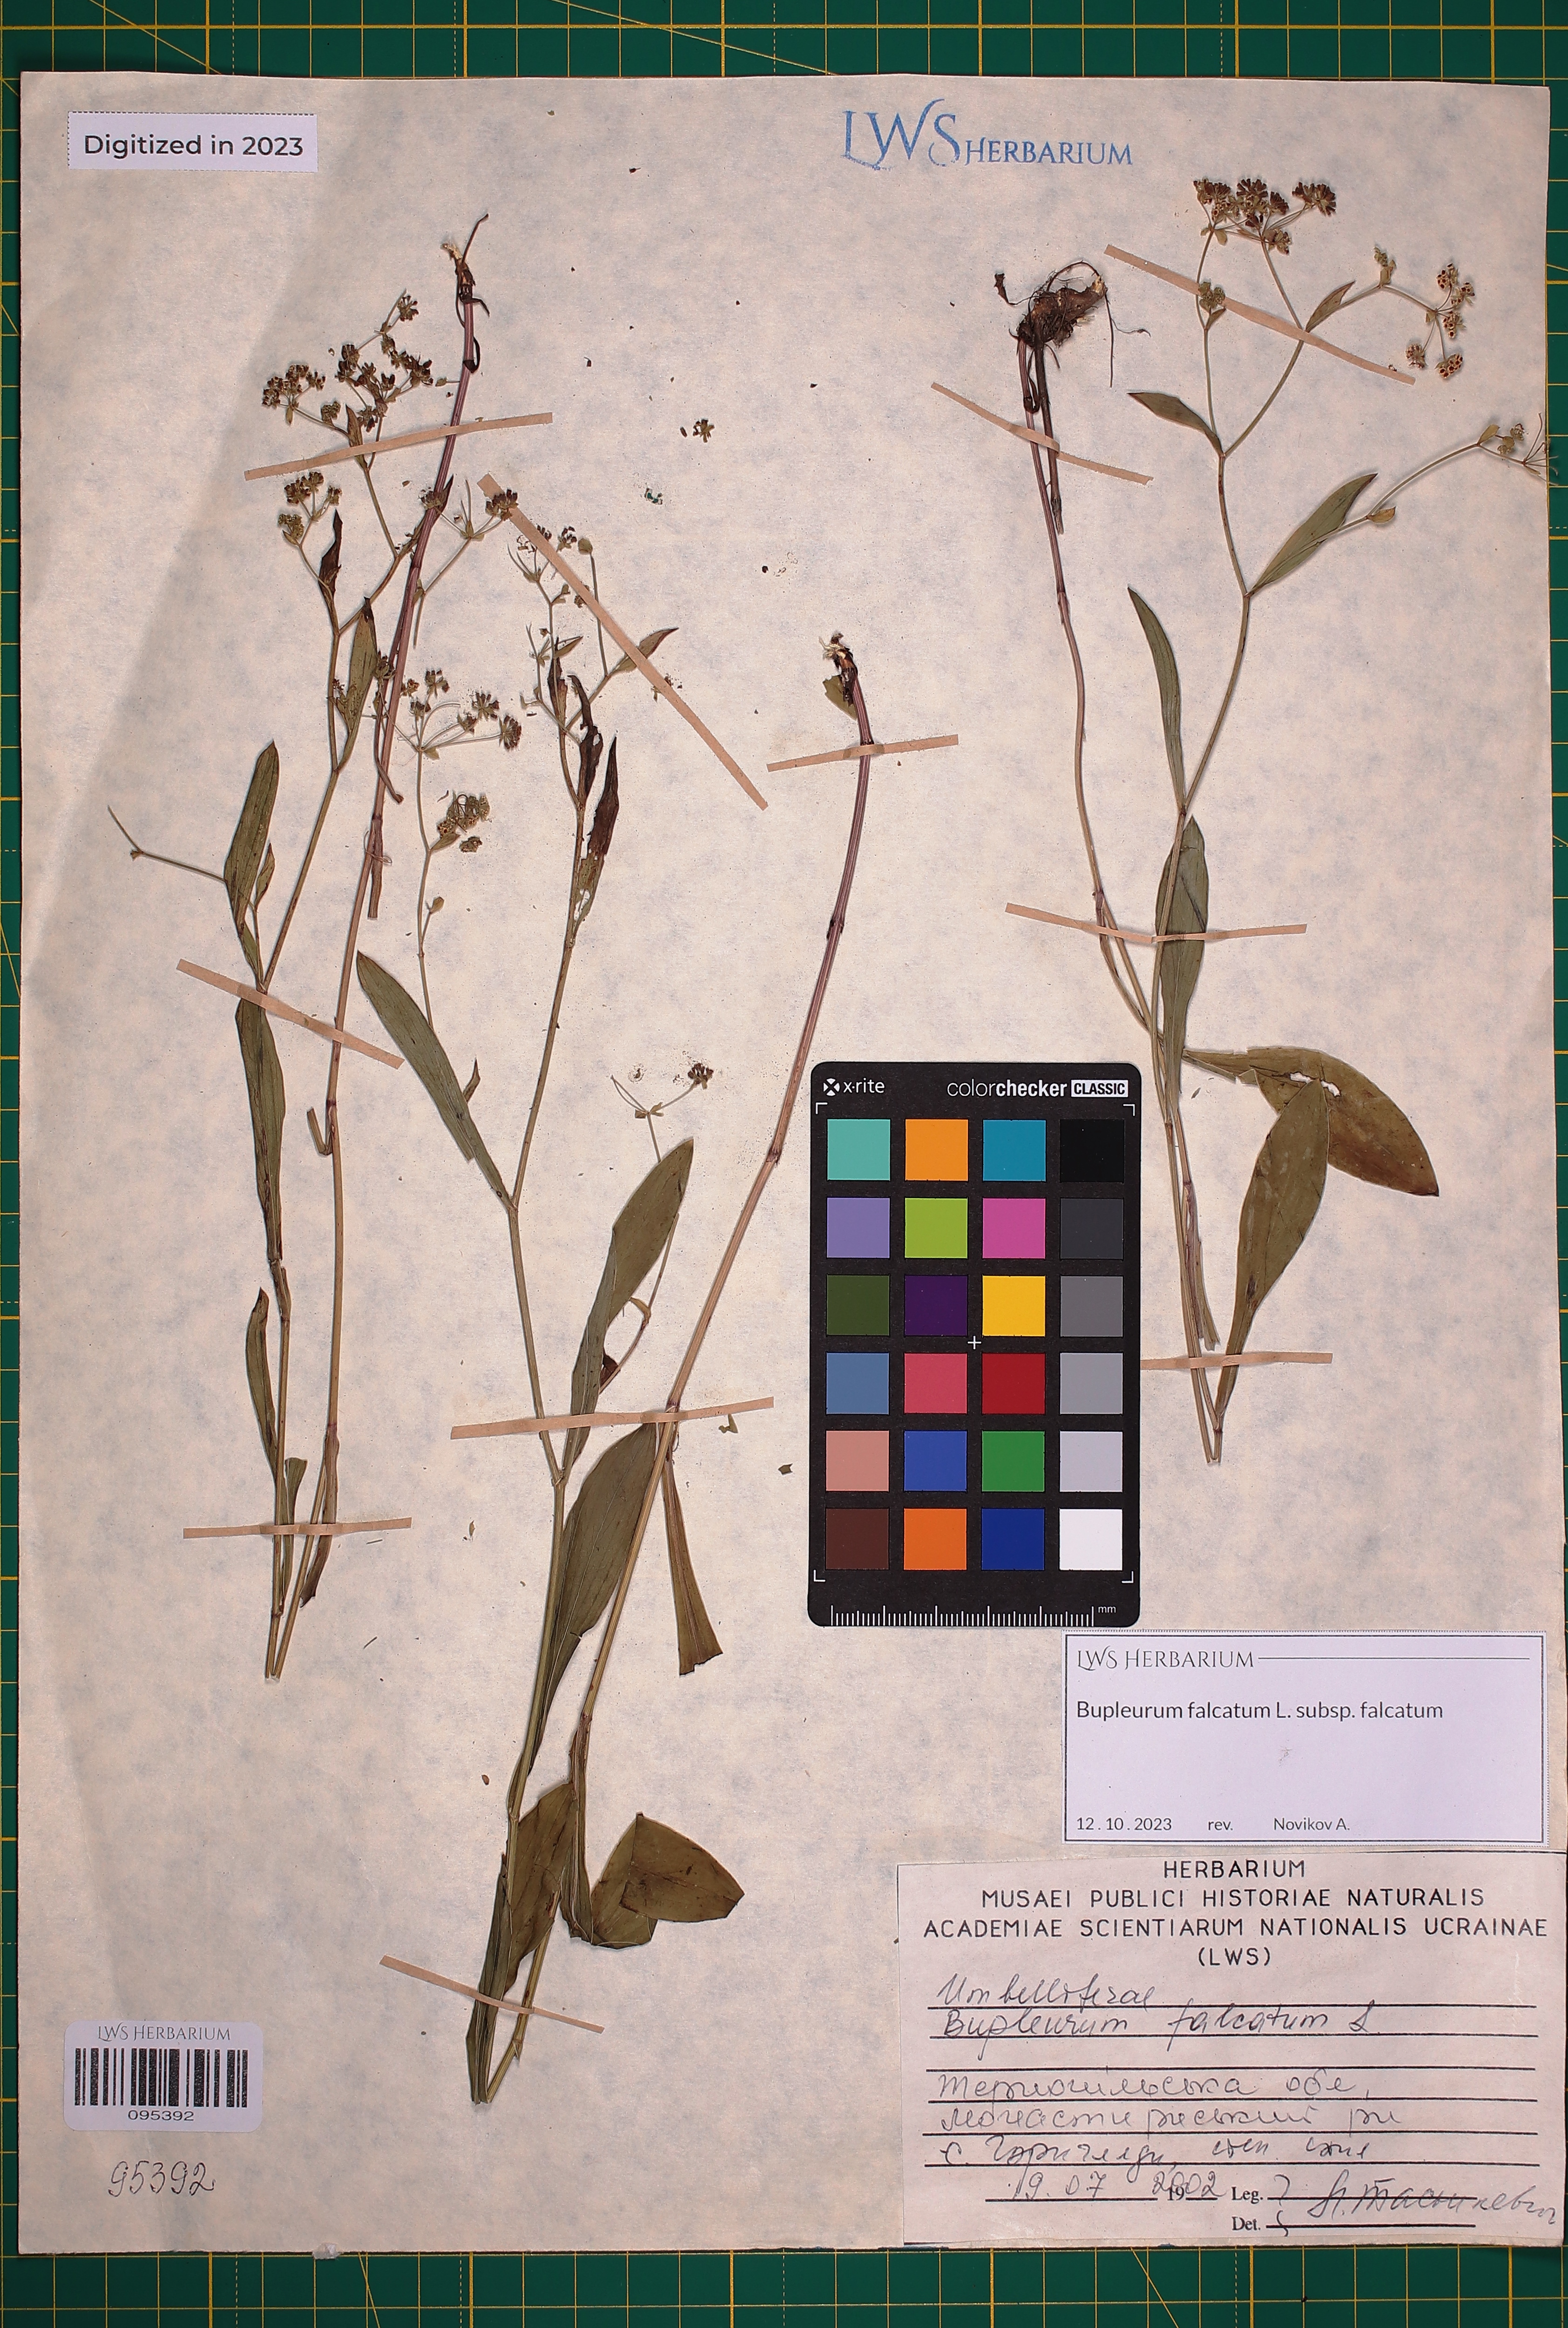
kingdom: Plantae
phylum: Tracheophyta
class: Magnoliopsida
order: Apiales
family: Apiaceae
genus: Bupleurum
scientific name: Bupleurum falcatum
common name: Sickle-leaved hare's-ear
